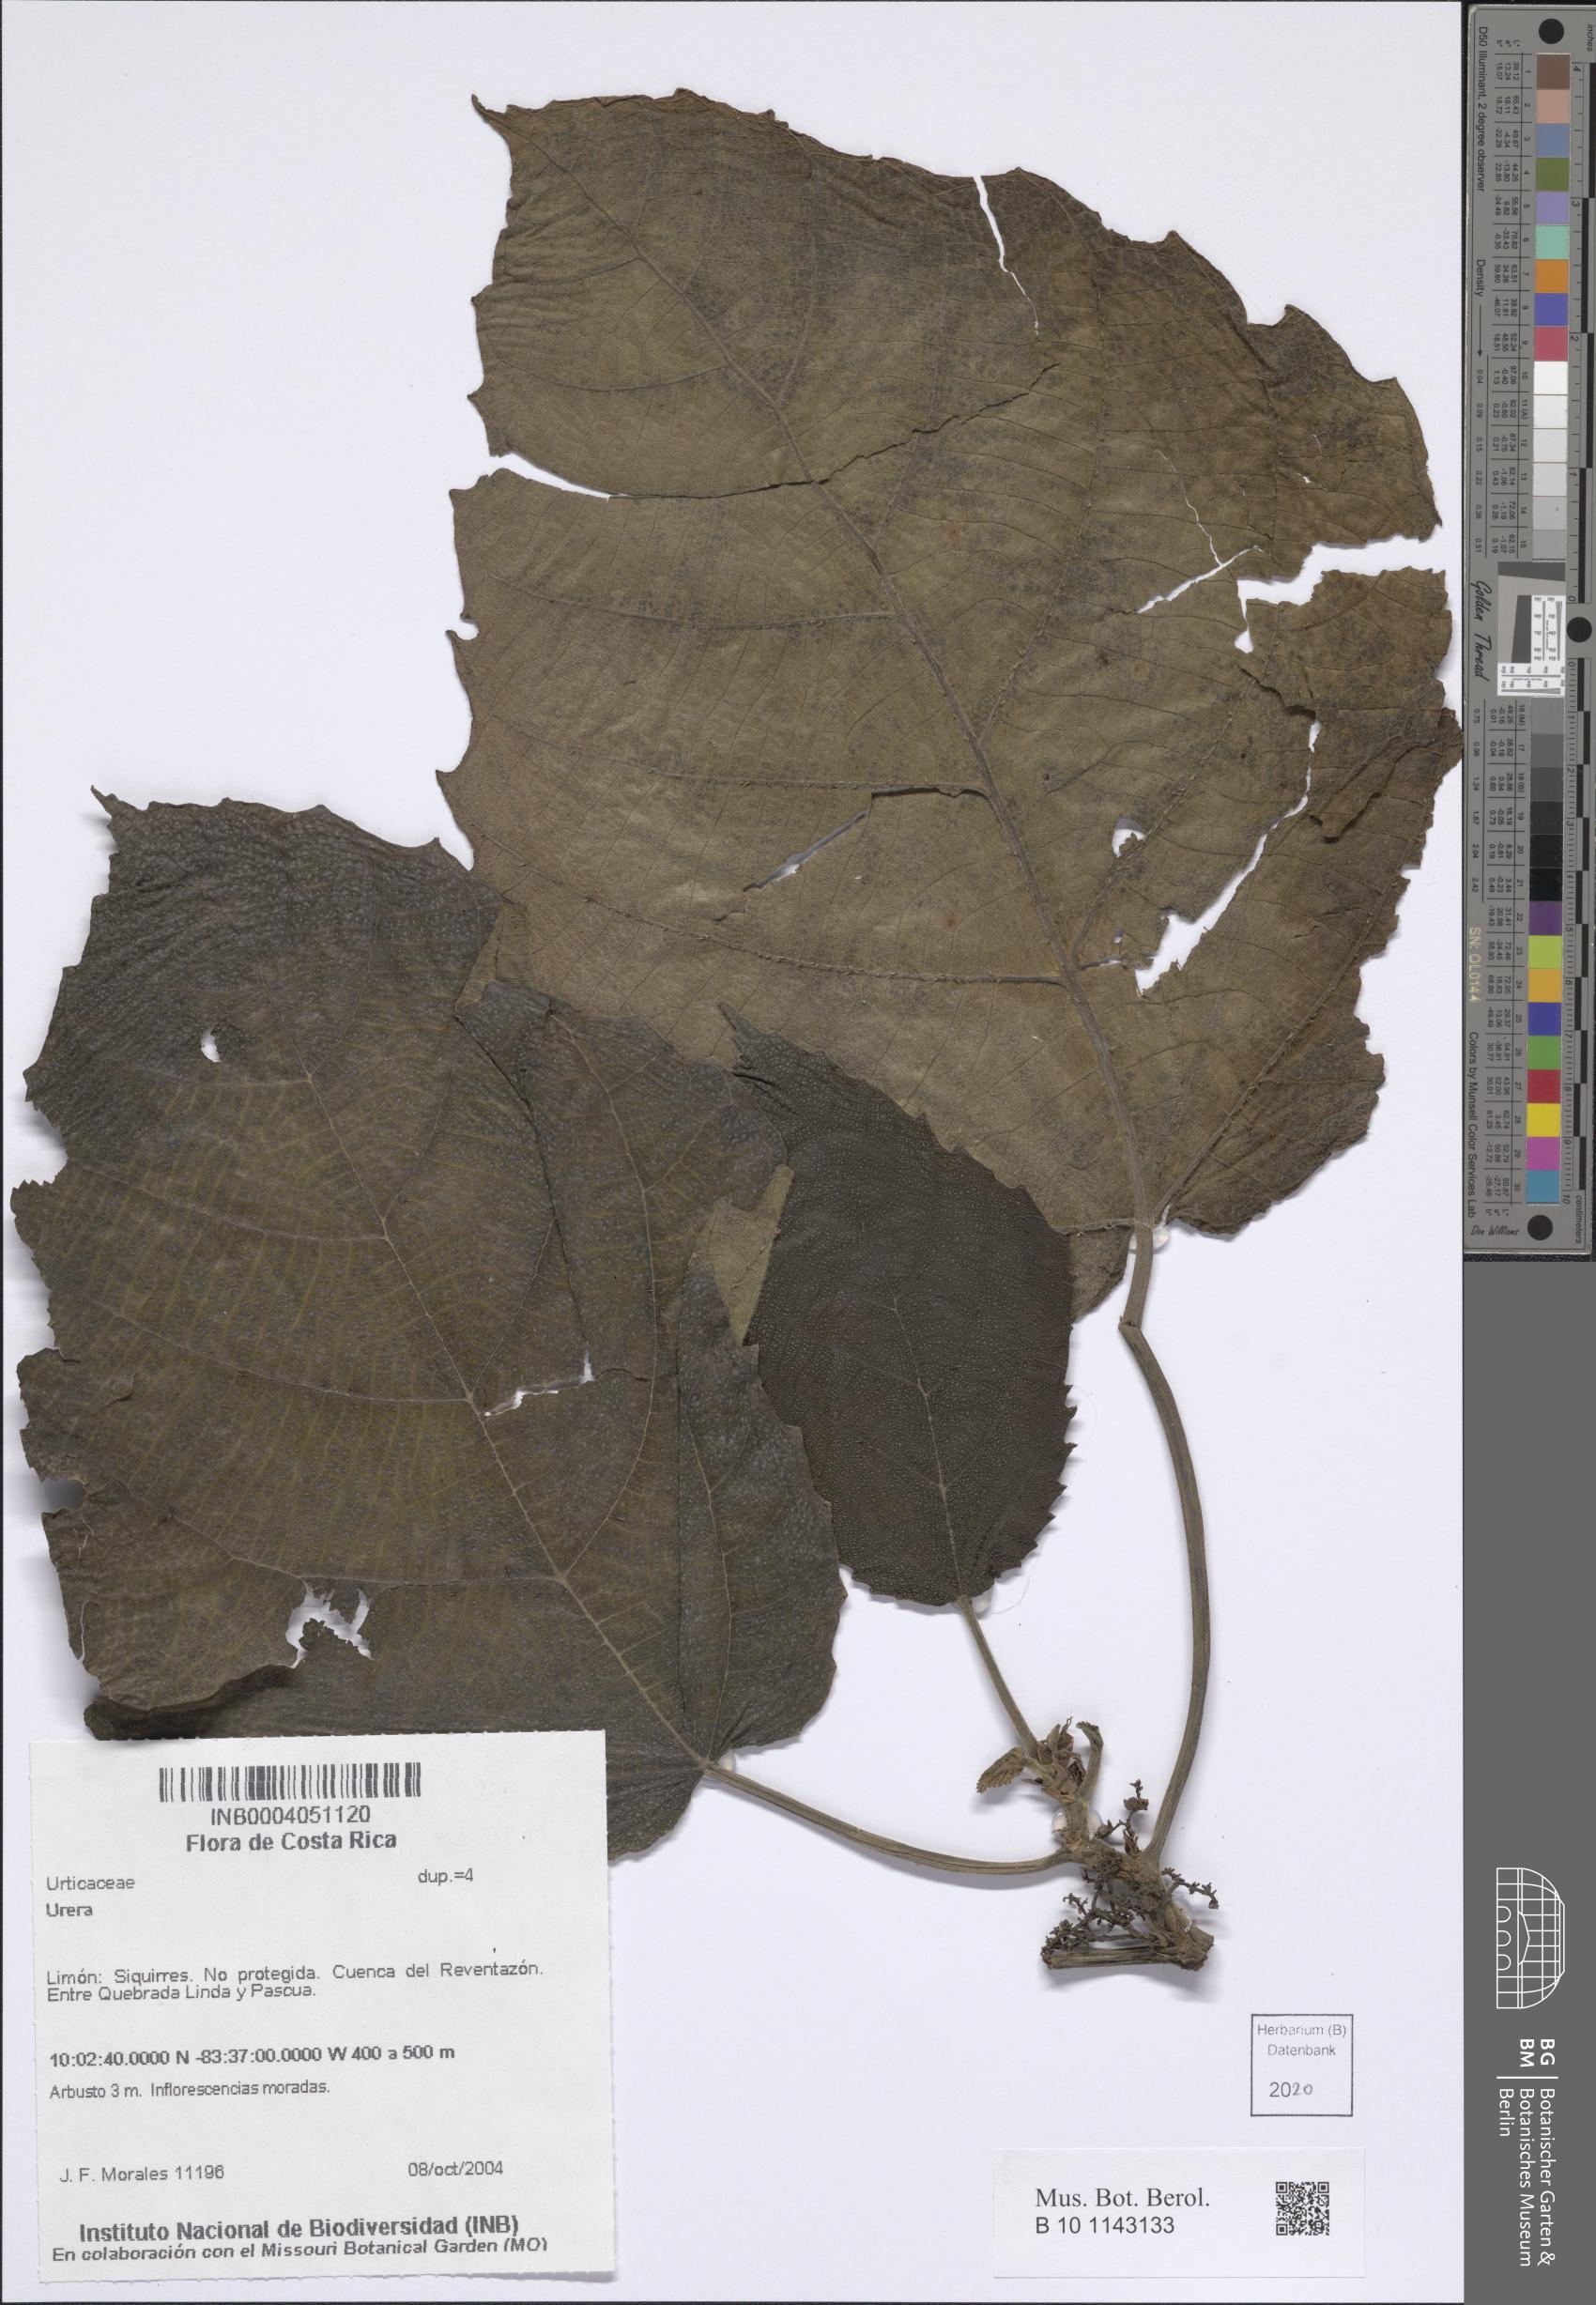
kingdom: Plantae
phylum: Tracheophyta
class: Magnoliopsida
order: Rosales
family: Urticaceae
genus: Urera
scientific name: Urera
